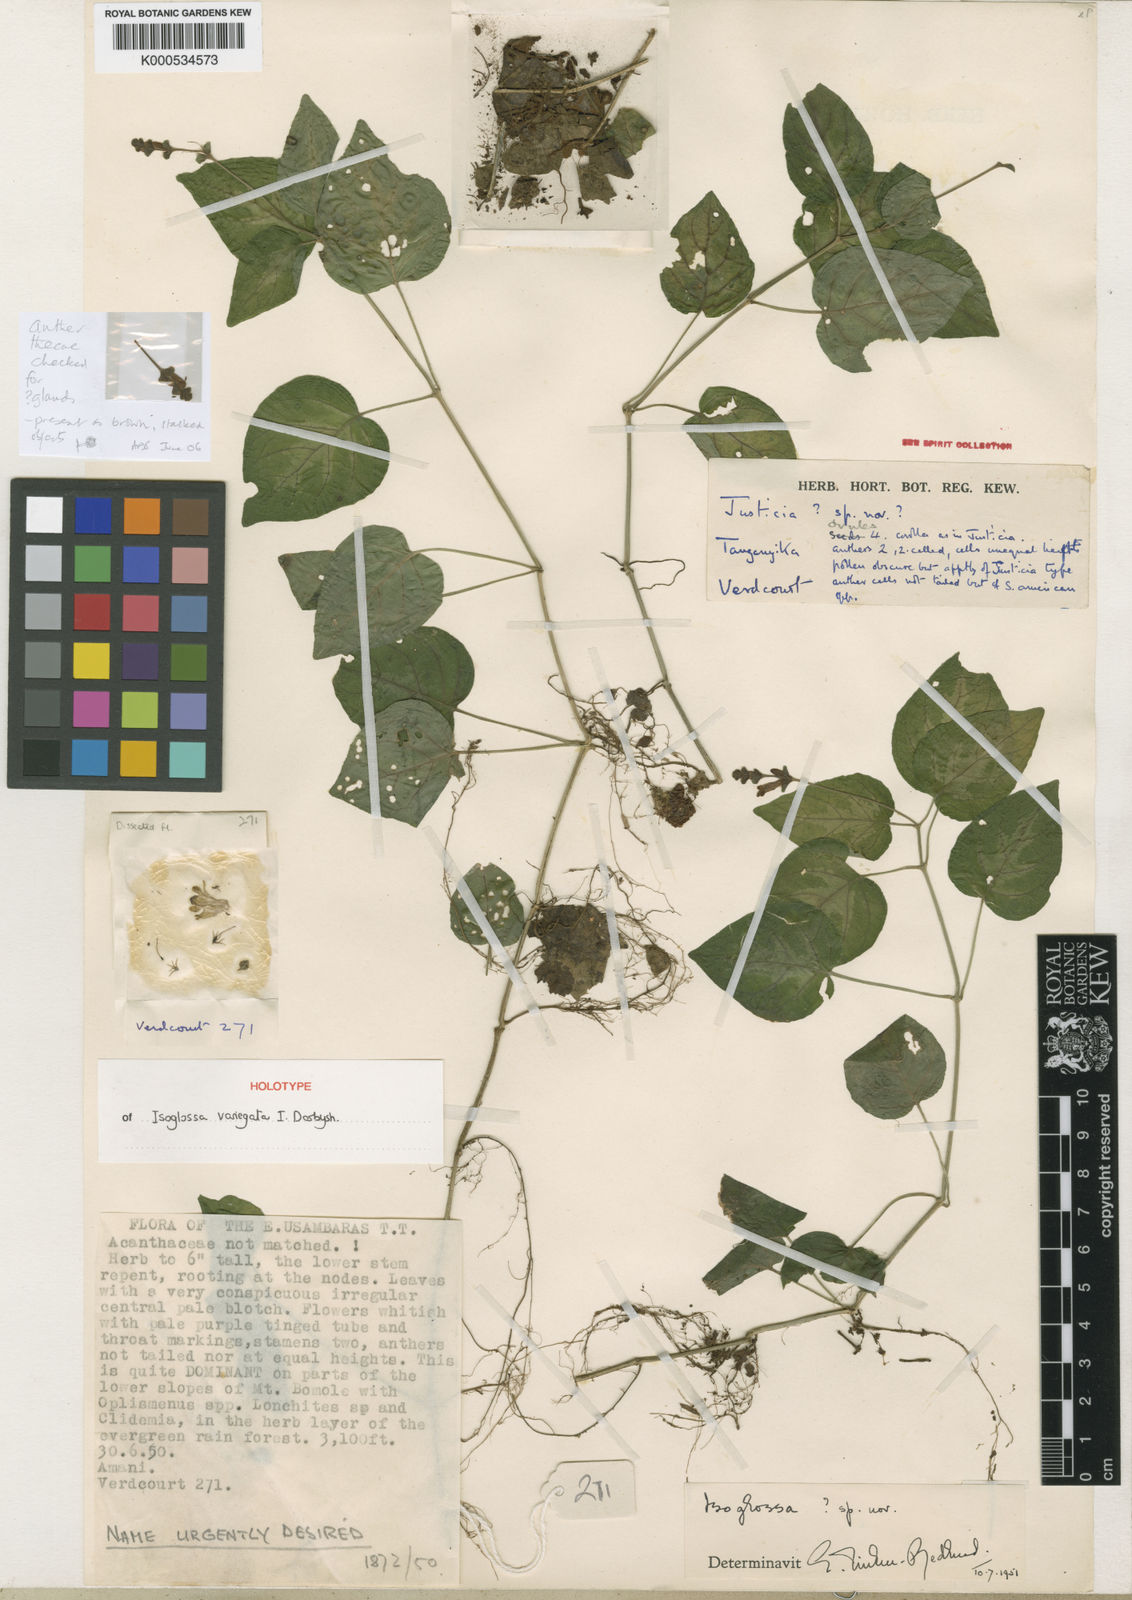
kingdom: Plantae
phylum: Tracheophyta
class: Magnoliopsida
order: Lamiales
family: Acanthaceae
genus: Isoglossa
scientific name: Isoglossa variegata
